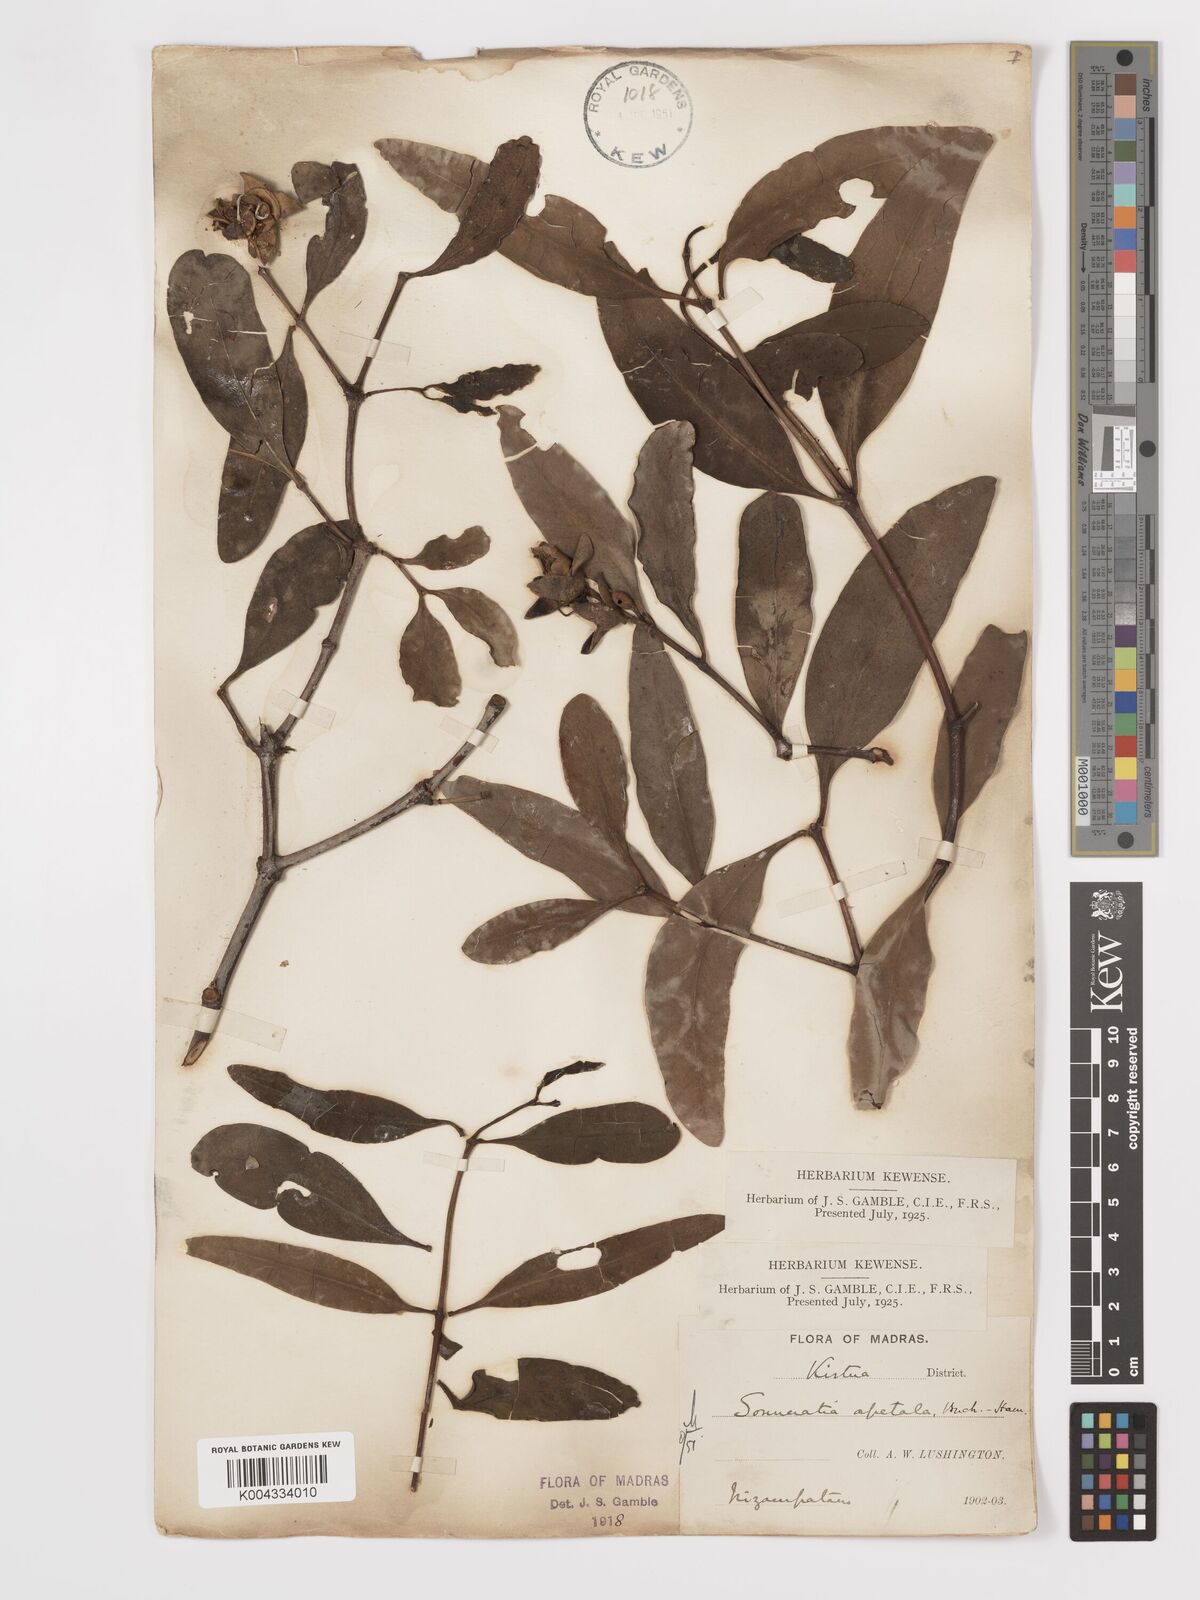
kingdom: Plantae
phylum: Tracheophyta
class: Magnoliopsida
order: Myrtales
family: Lythraceae
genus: Sonneratia
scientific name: Sonneratia apetala
